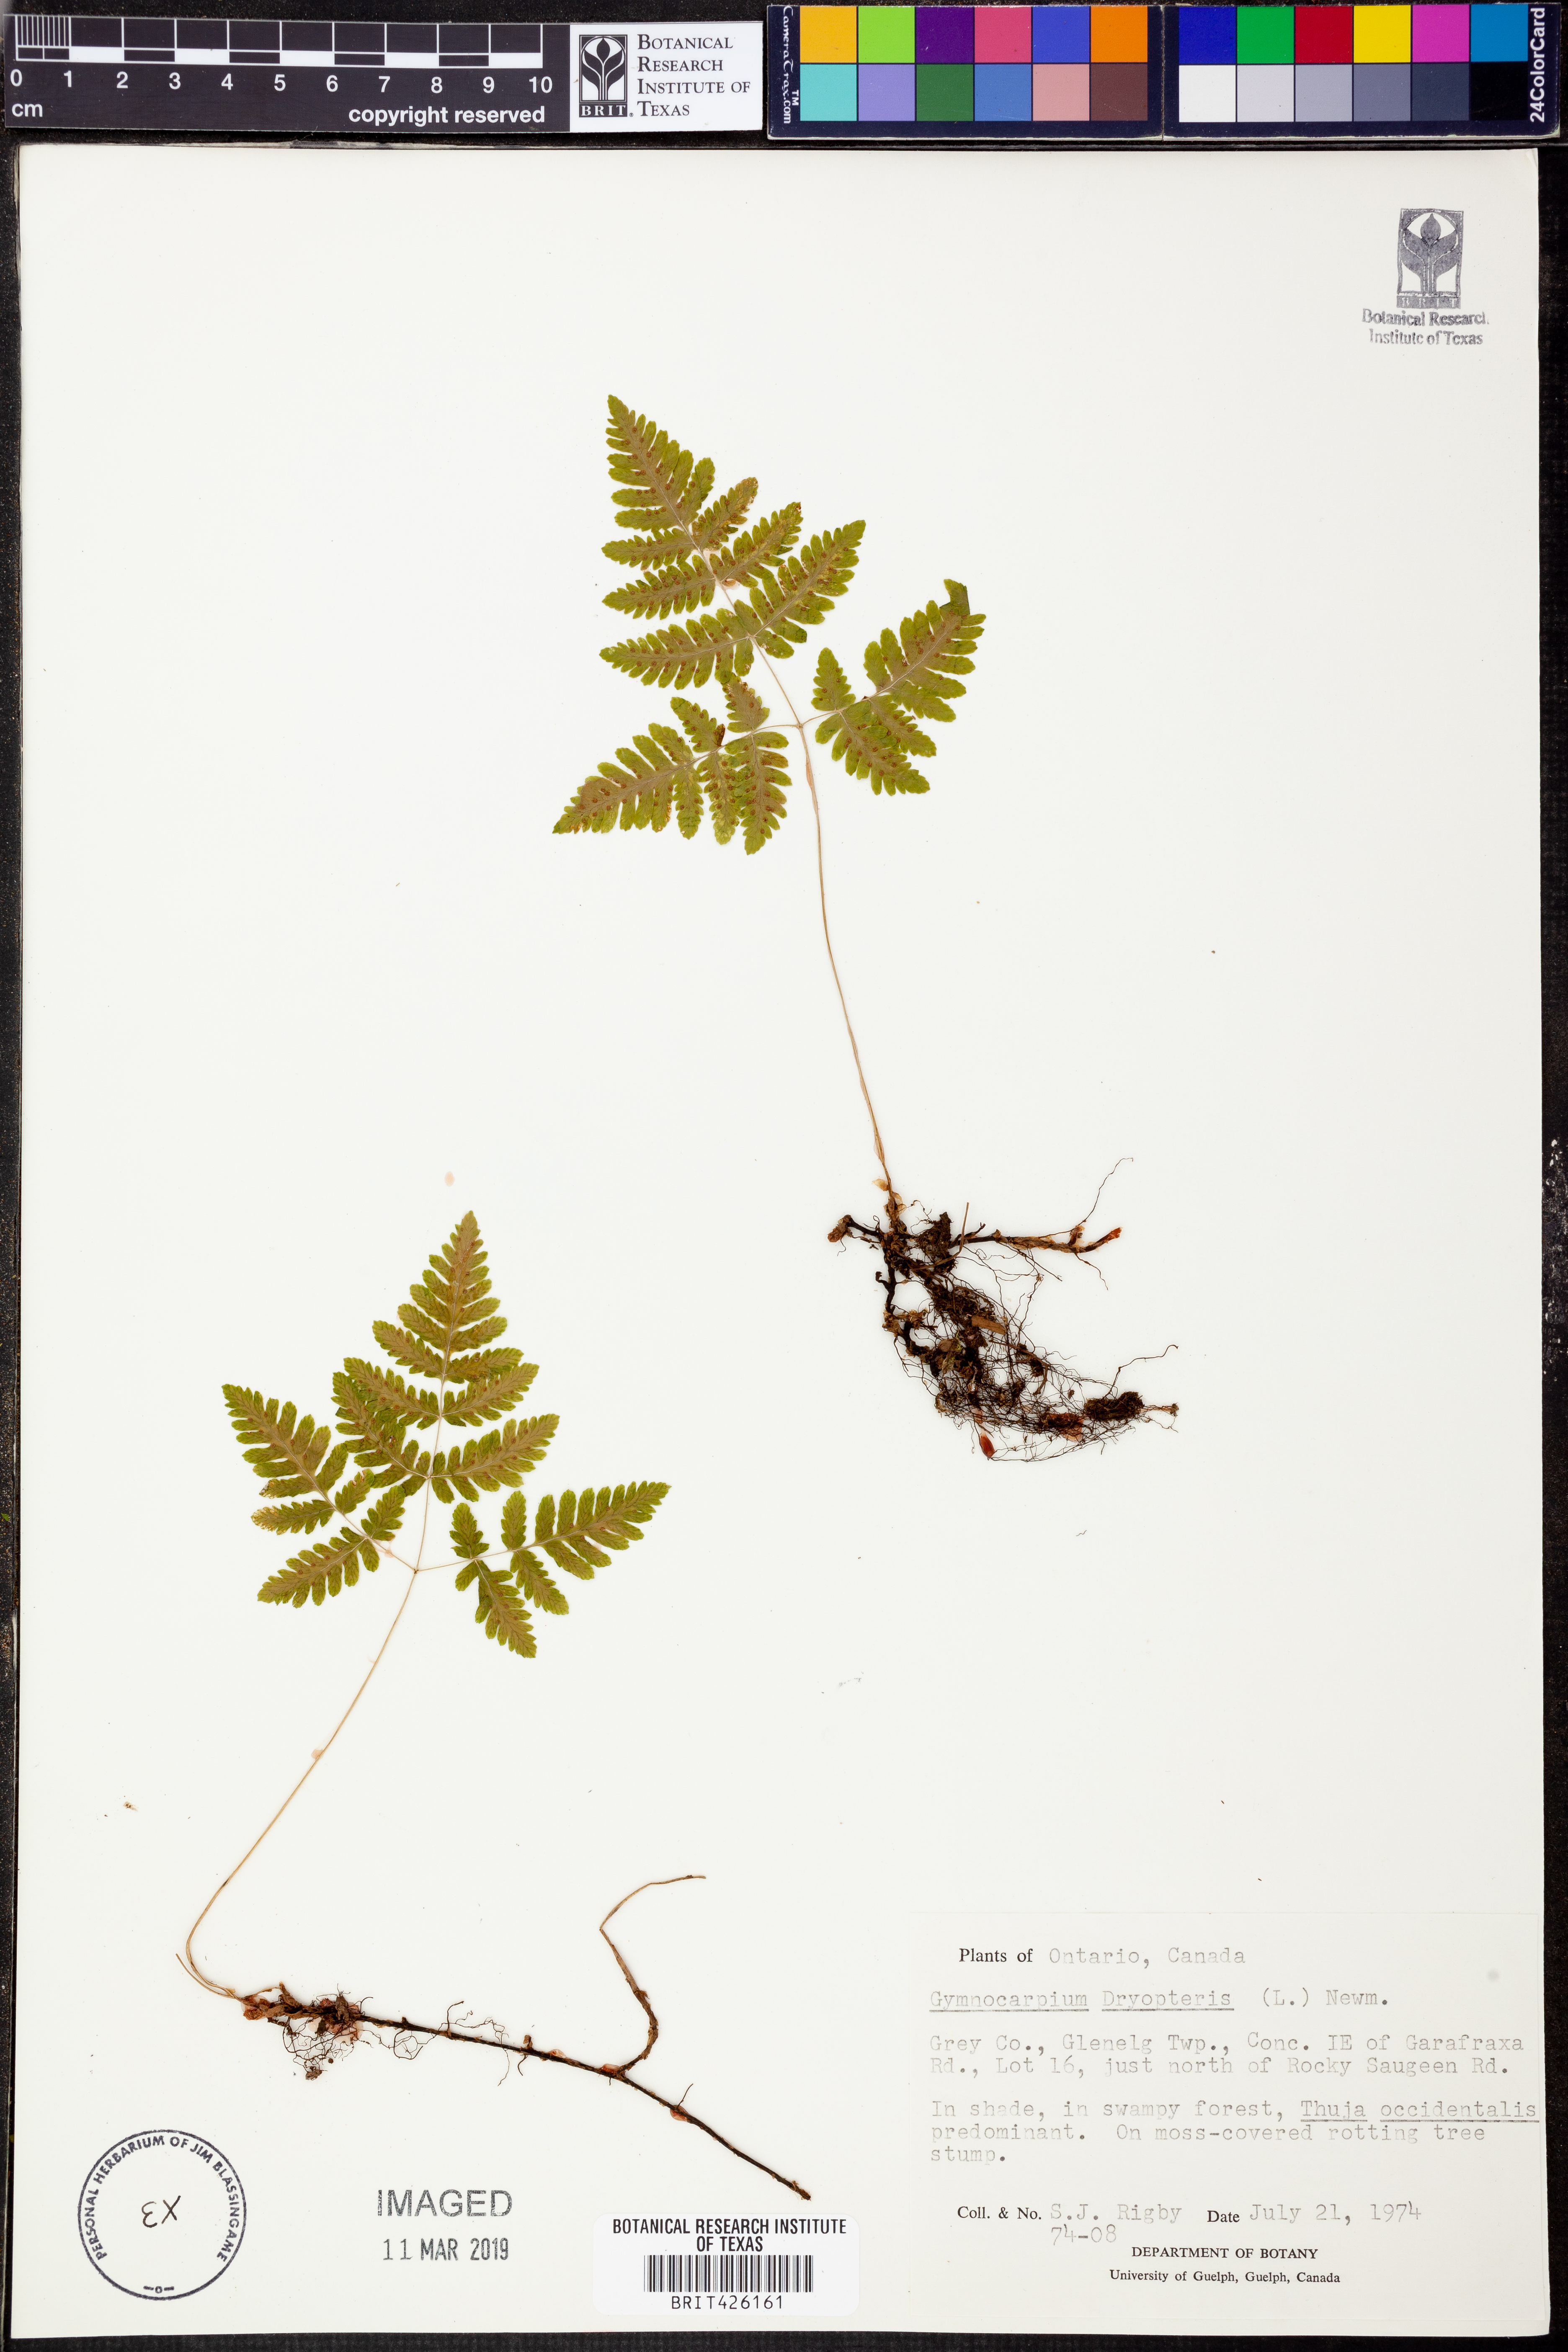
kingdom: Plantae
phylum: Tracheophyta
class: Polypodiopsida
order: Polypodiales
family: Cystopteridaceae
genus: Gymnocarpium
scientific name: Gymnocarpium dryopteris
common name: Oak fern
